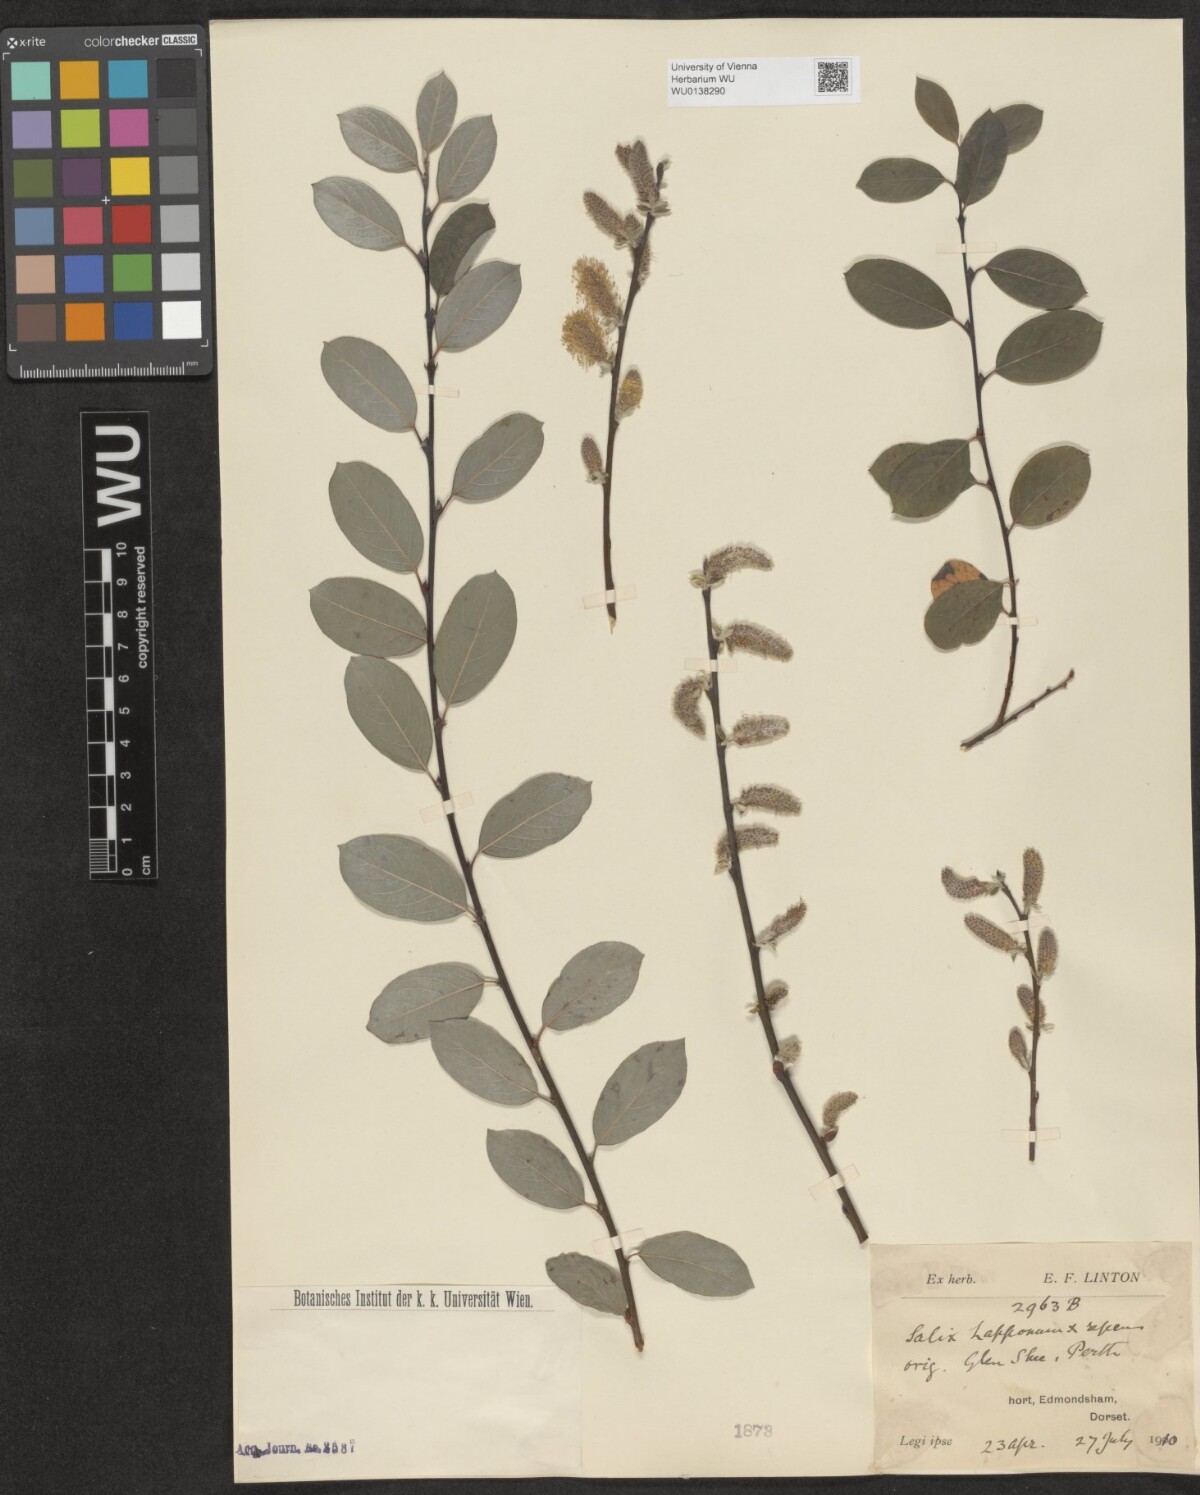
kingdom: Plantae
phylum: Tracheophyta
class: Magnoliopsida
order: Malpighiales
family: Salicaceae
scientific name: Salicaceae
